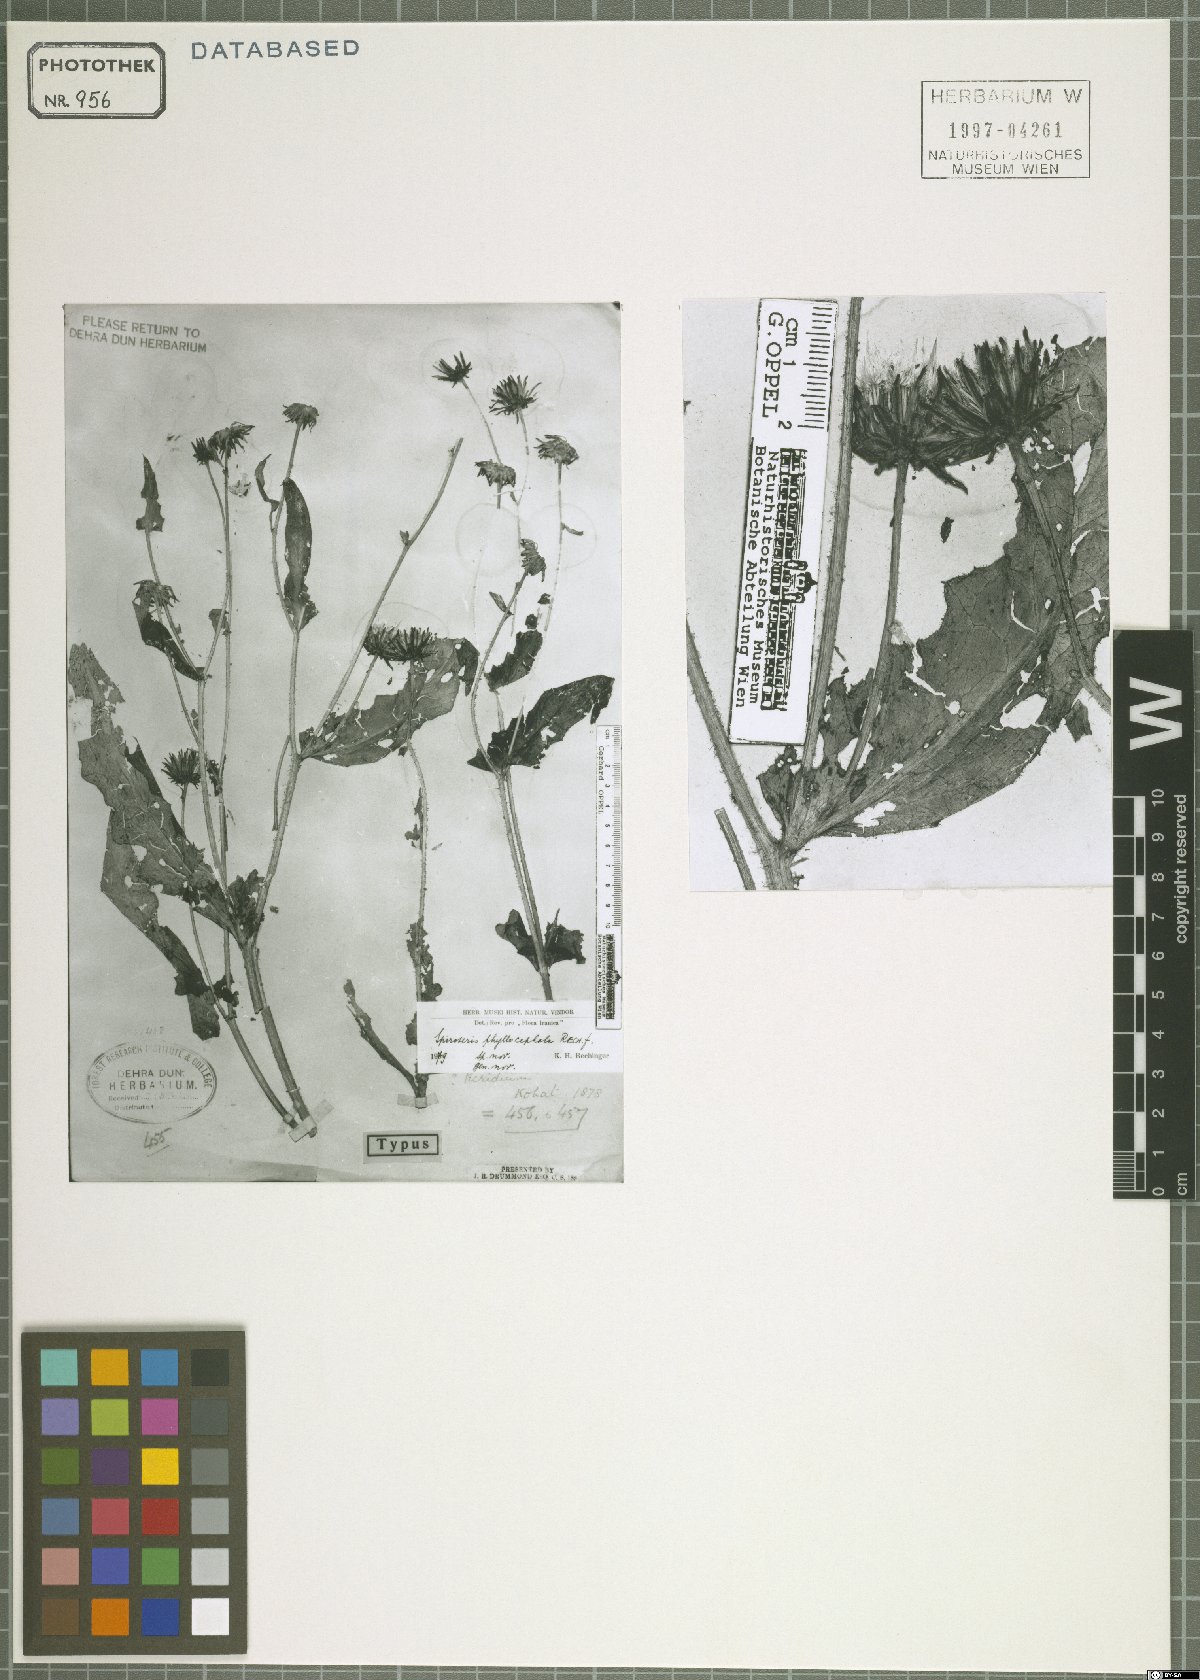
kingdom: Plantae
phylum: Tracheophyta
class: Magnoliopsida
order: Asterales
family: Asteraceae
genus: Spiroseris
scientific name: Spiroseris phyllocephala
